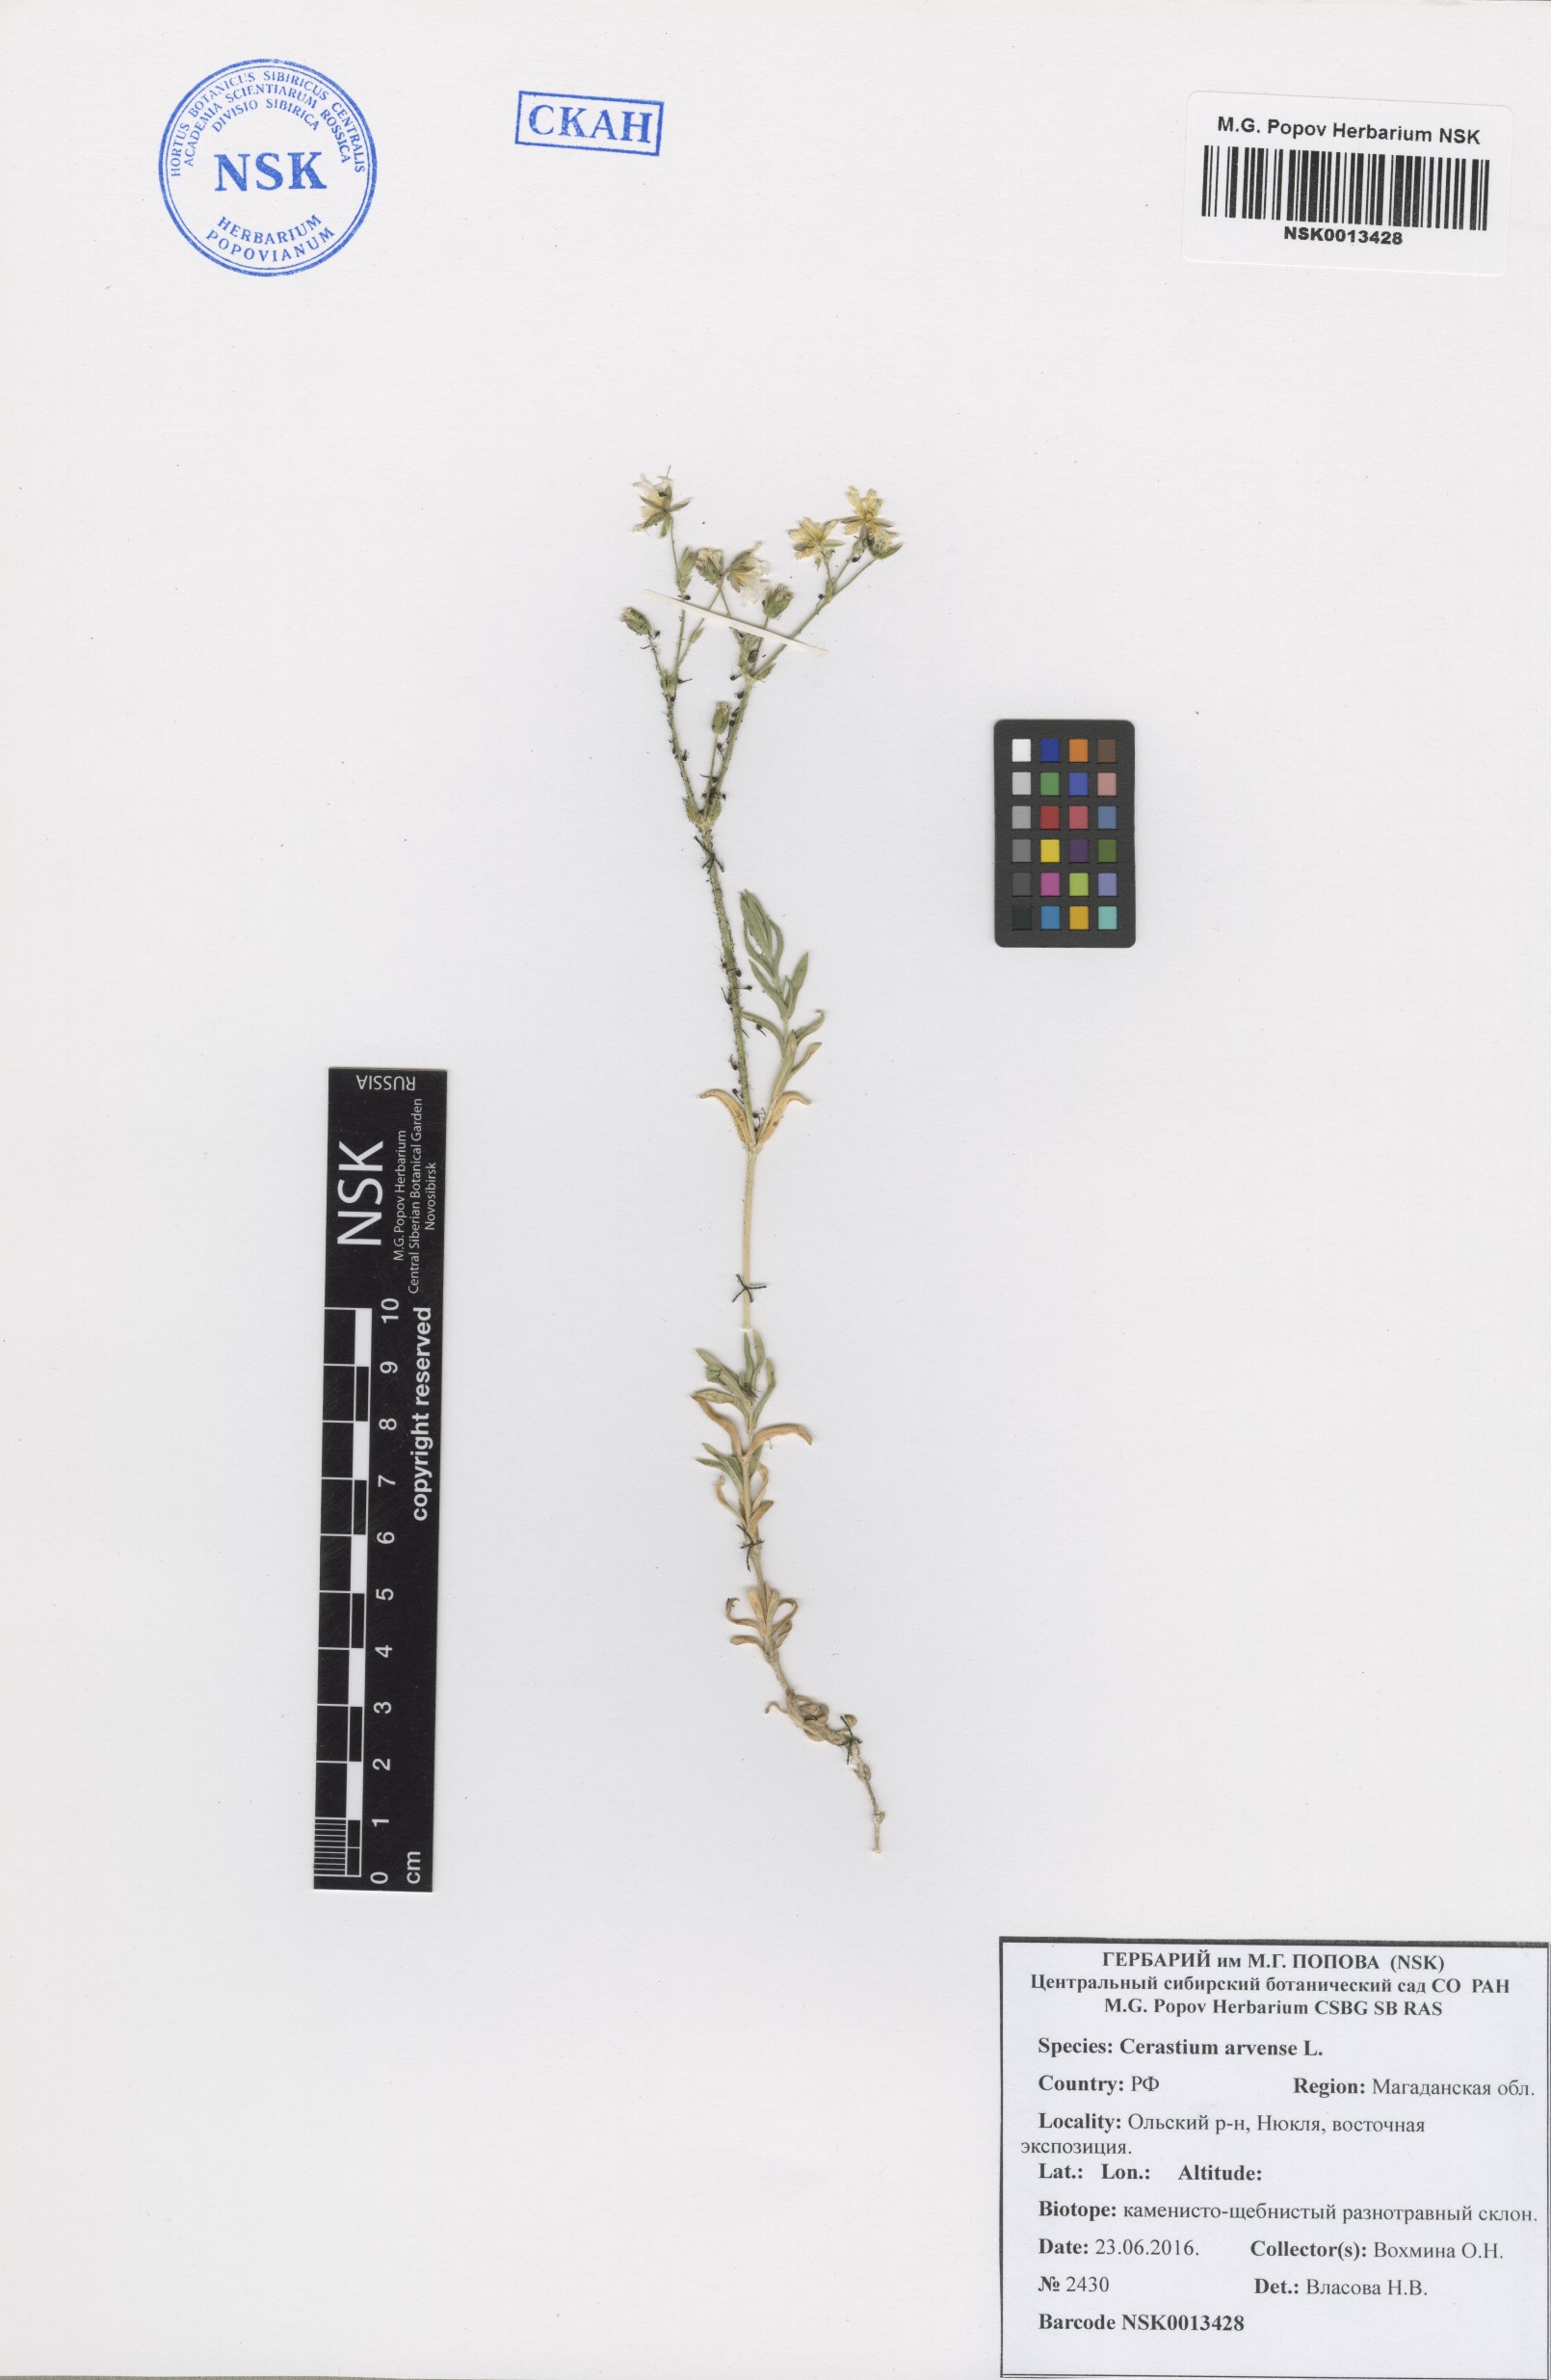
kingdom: Plantae
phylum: Tracheophyta
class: Magnoliopsida
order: Caryophyllales
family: Caryophyllaceae
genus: Cerastium
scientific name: Cerastium arvense
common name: Field mouse-ear
